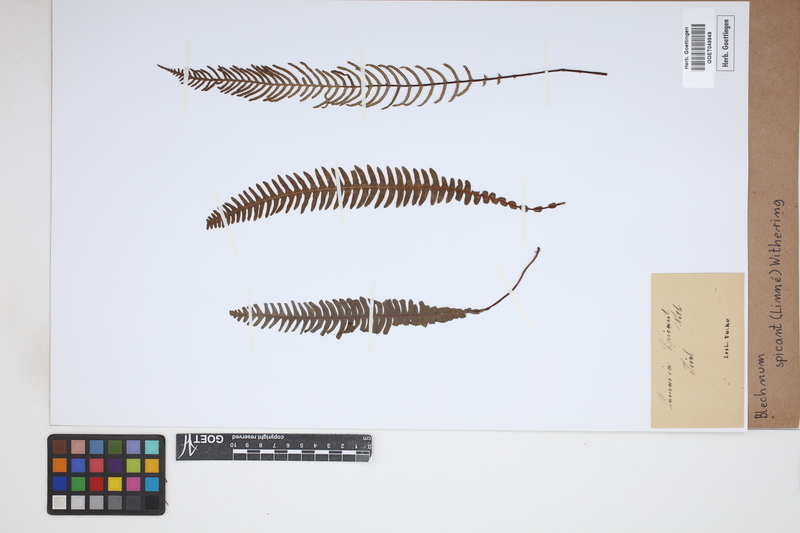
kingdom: Plantae
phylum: Tracheophyta
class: Polypodiopsida
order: Polypodiales
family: Blechnaceae
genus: Struthiopteris
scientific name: Struthiopteris spicant
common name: Deer fern
